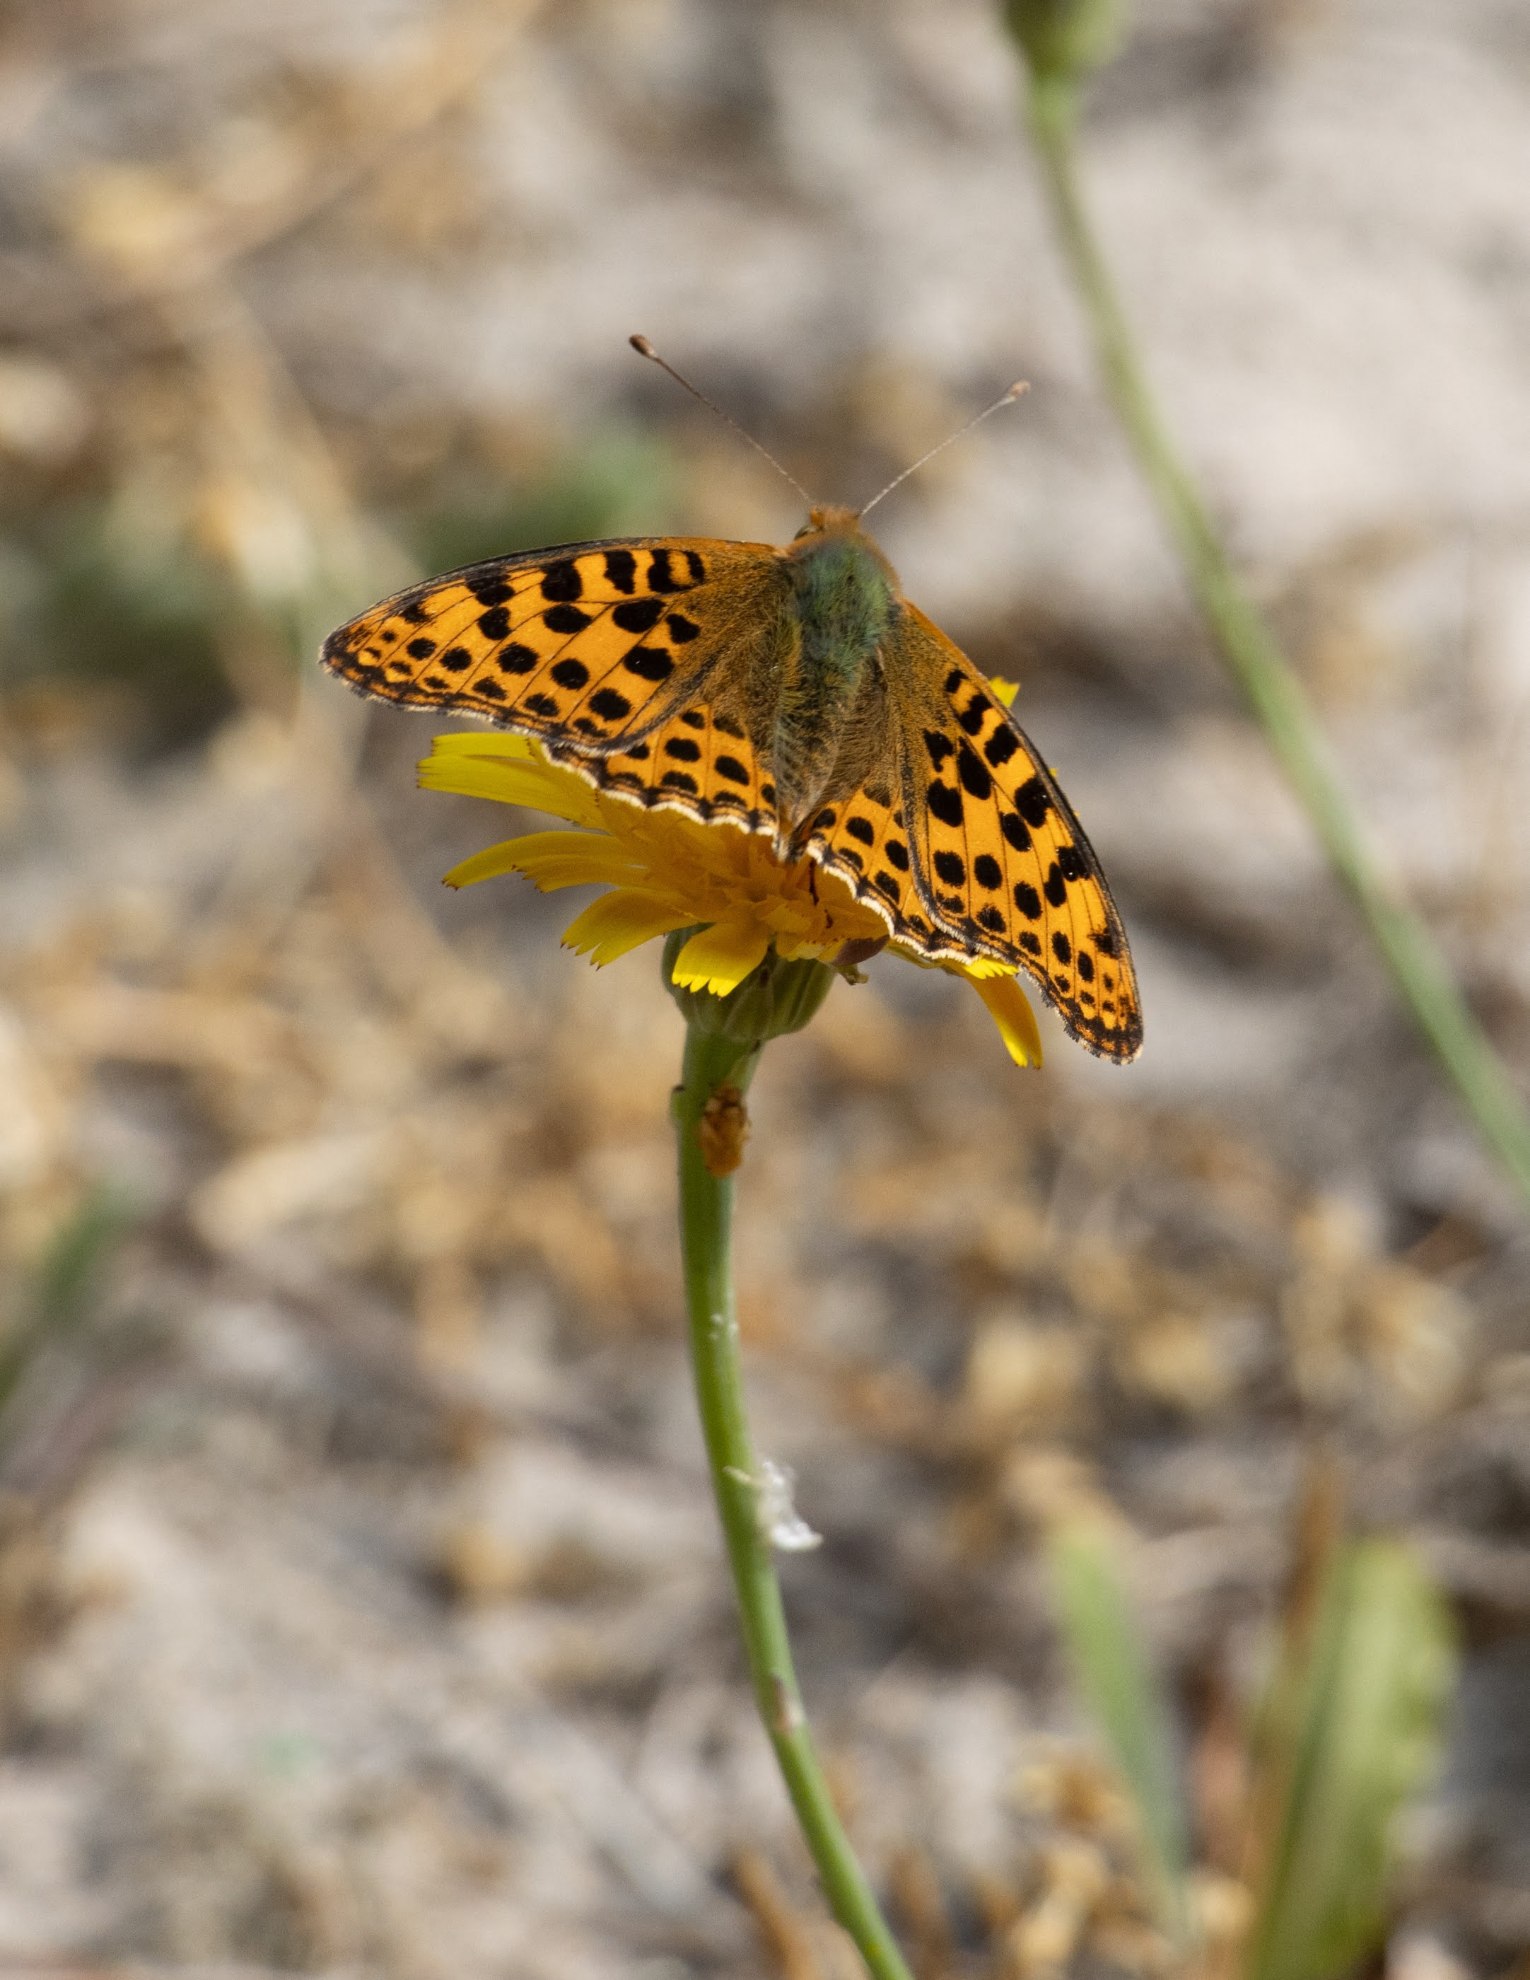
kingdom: Animalia
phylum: Arthropoda
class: Insecta
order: Lepidoptera
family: Nymphalidae
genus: Issoria
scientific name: Issoria lathonia
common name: Storplettet perlemorsommerfugl
